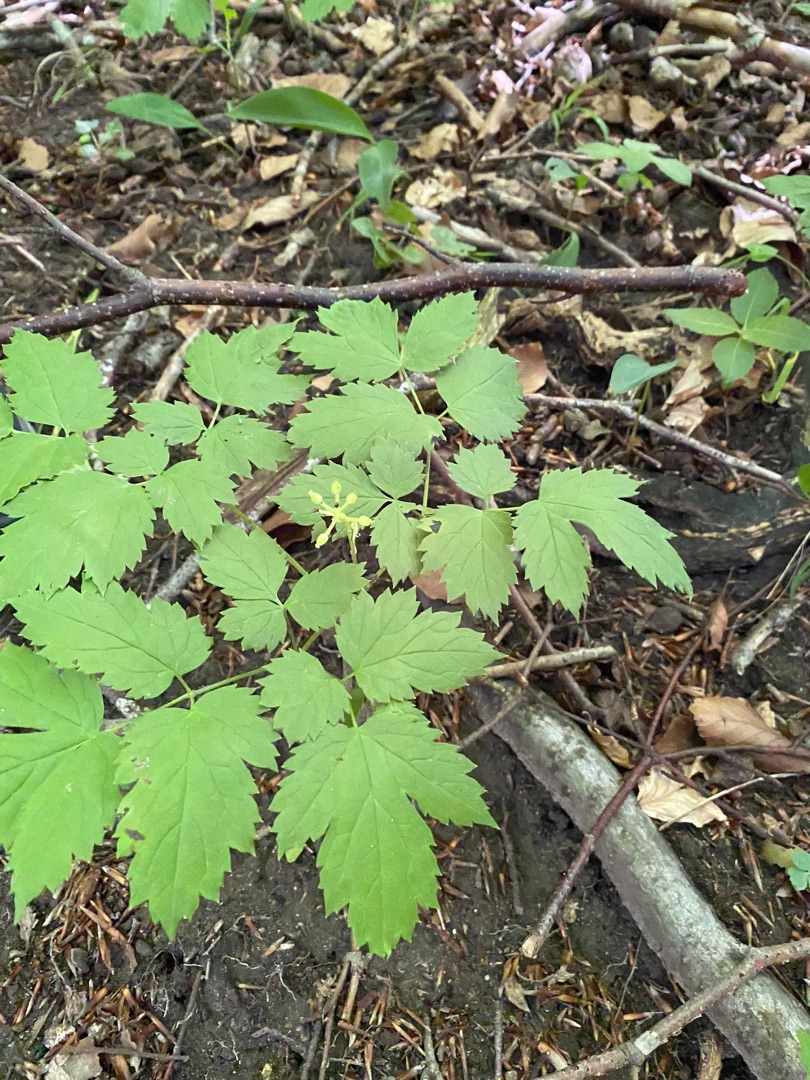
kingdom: Plantae
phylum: Tracheophyta
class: Magnoliopsida
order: Ranunculales
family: Ranunculaceae
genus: Actaea
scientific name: Actaea spicata
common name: Druemunke
